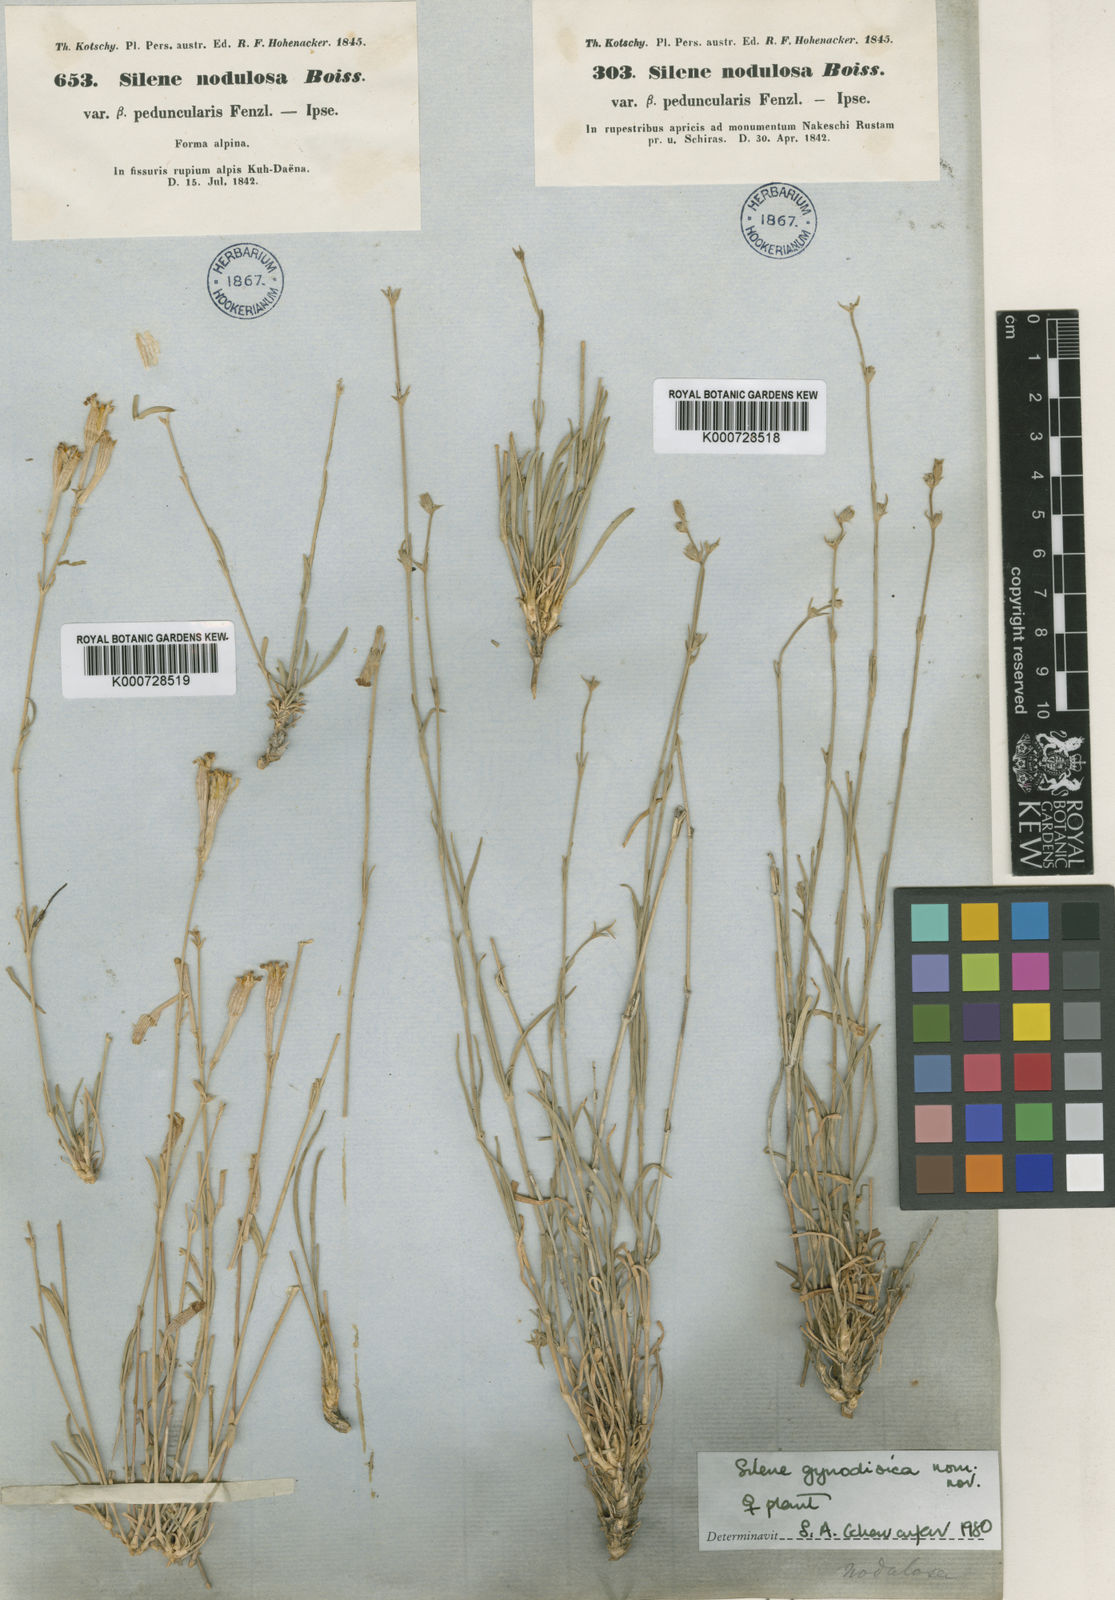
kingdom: Plantae
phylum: Tracheophyta
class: Magnoliopsida
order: Caryophyllales
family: Caryophyllaceae
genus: Silene
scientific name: Silene gynodioica
